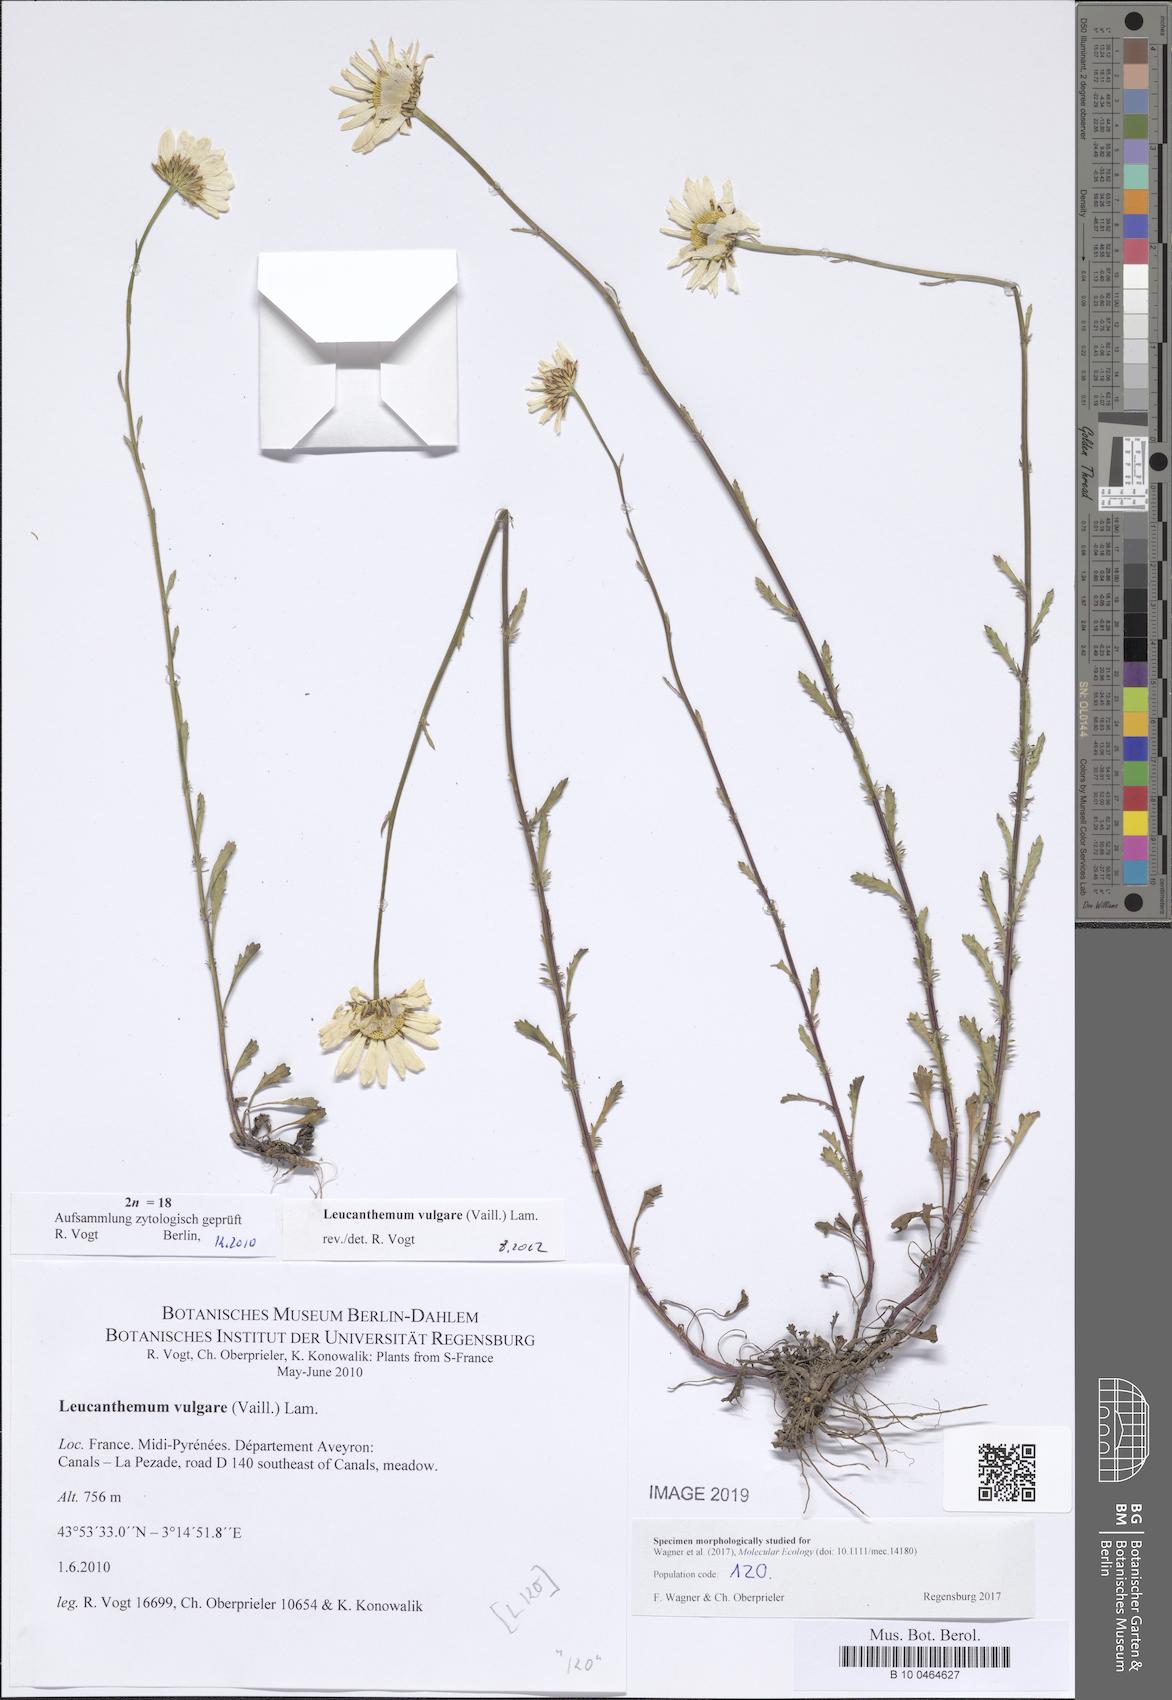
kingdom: Plantae
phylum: Tracheophyta
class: Magnoliopsida
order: Asterales
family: Asteraceae
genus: Leucanthemum
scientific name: Leucanthemum vulgare
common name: Oxeye daisy
